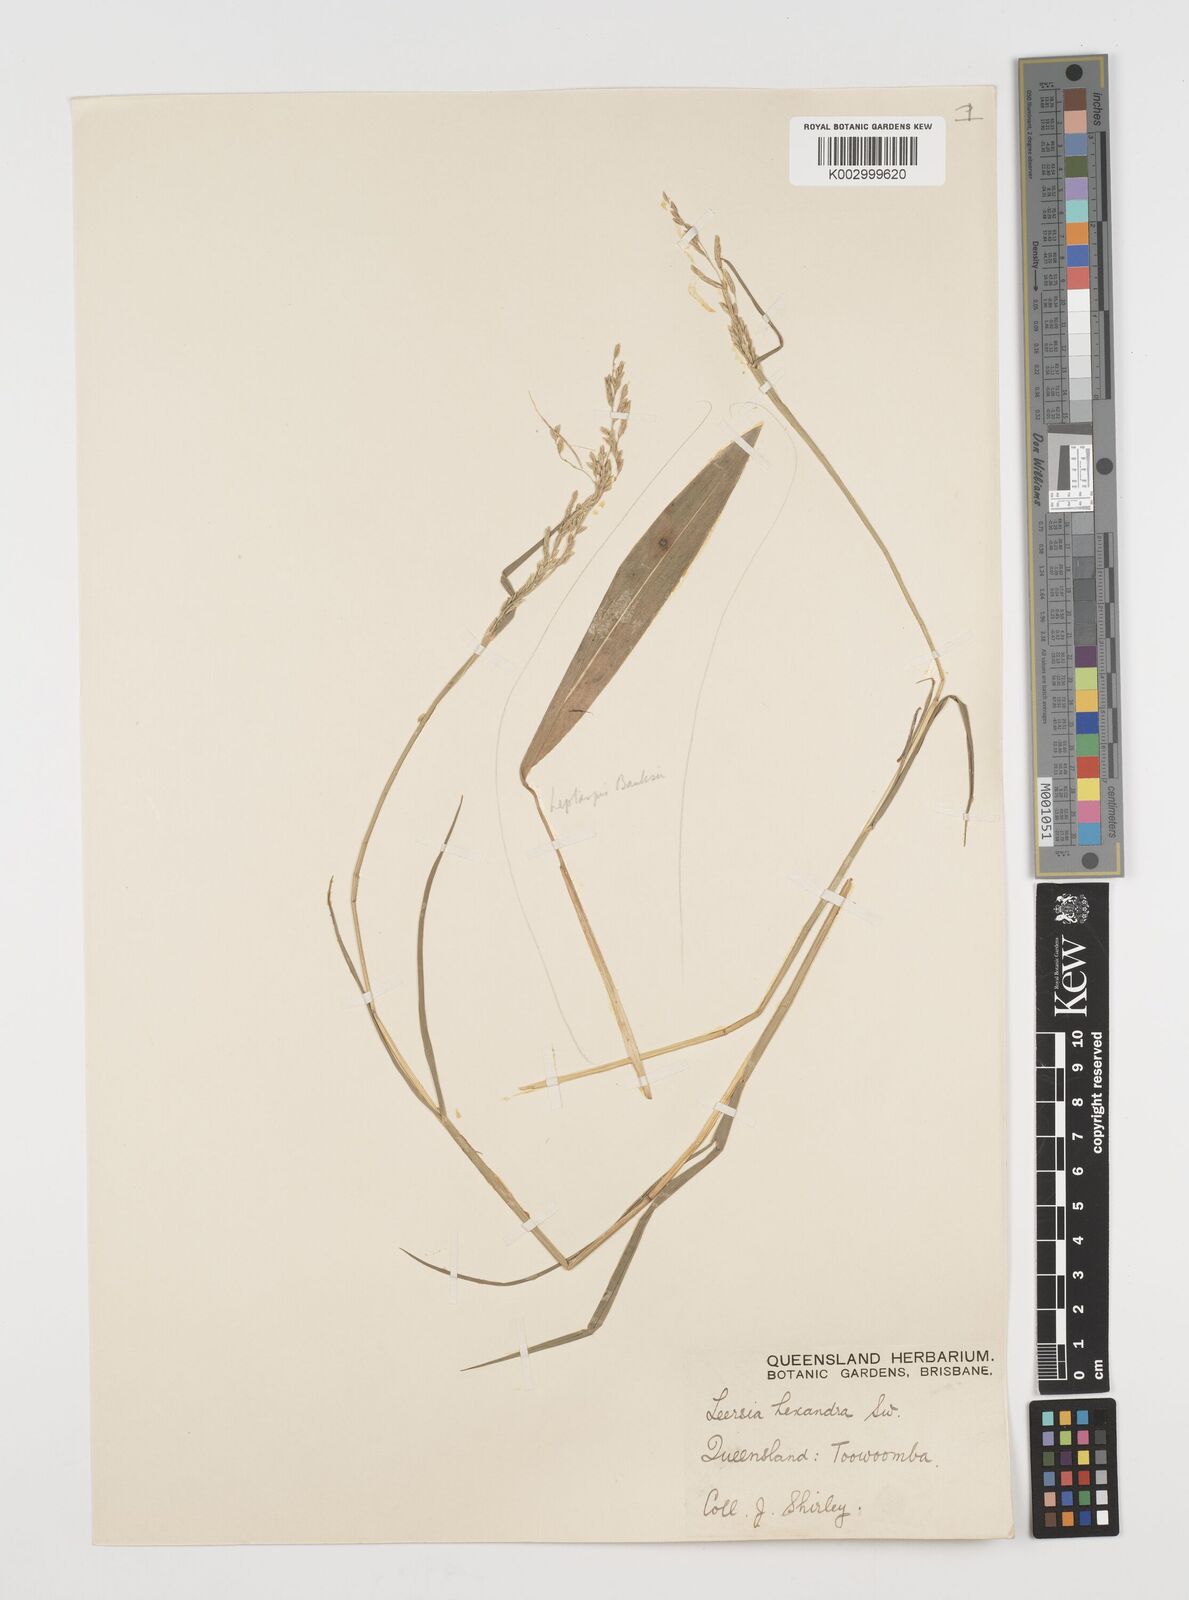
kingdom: Plantae
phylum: Tracheophyta
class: Liliopsida
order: Poales
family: Poaceae
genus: Leersia
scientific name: Leersia hexandra
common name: Southern cut grass
